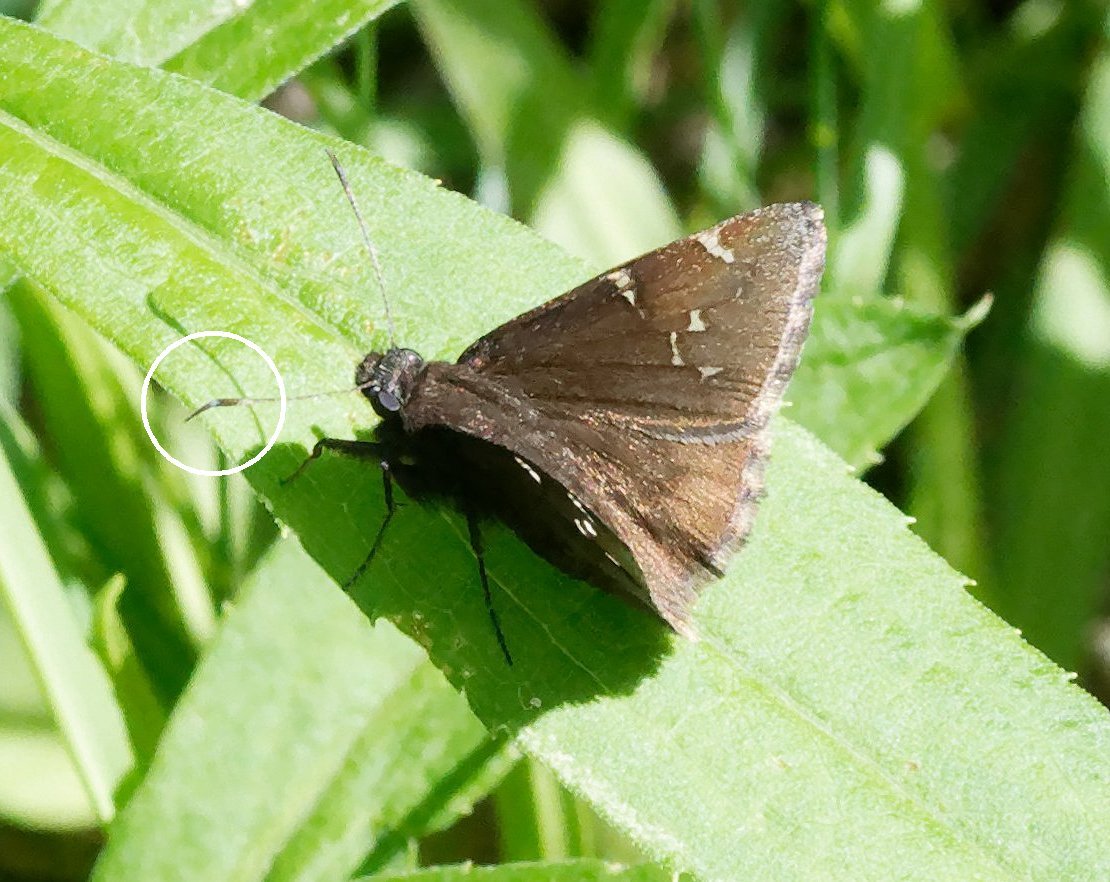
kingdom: Animalia
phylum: Arthropoda
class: Insecta
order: Lepidoptera
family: Hesperiidae
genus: Thorybes
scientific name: Thorybes
